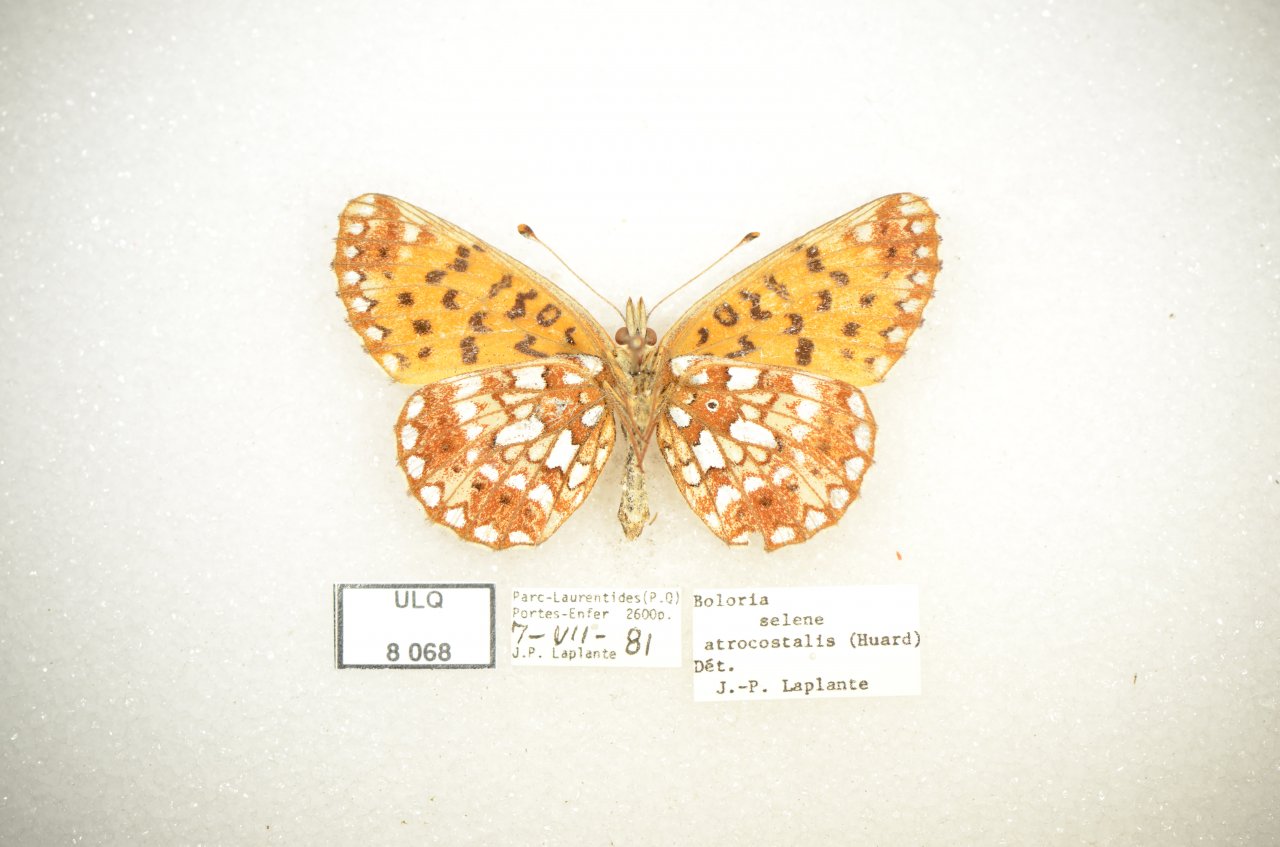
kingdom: Animalia
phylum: Arthropoda
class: Insecta
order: Lepidoptera
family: Nymphalidae
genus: Boloria
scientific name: Boloria selene
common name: Silver-bordered Fritillary
